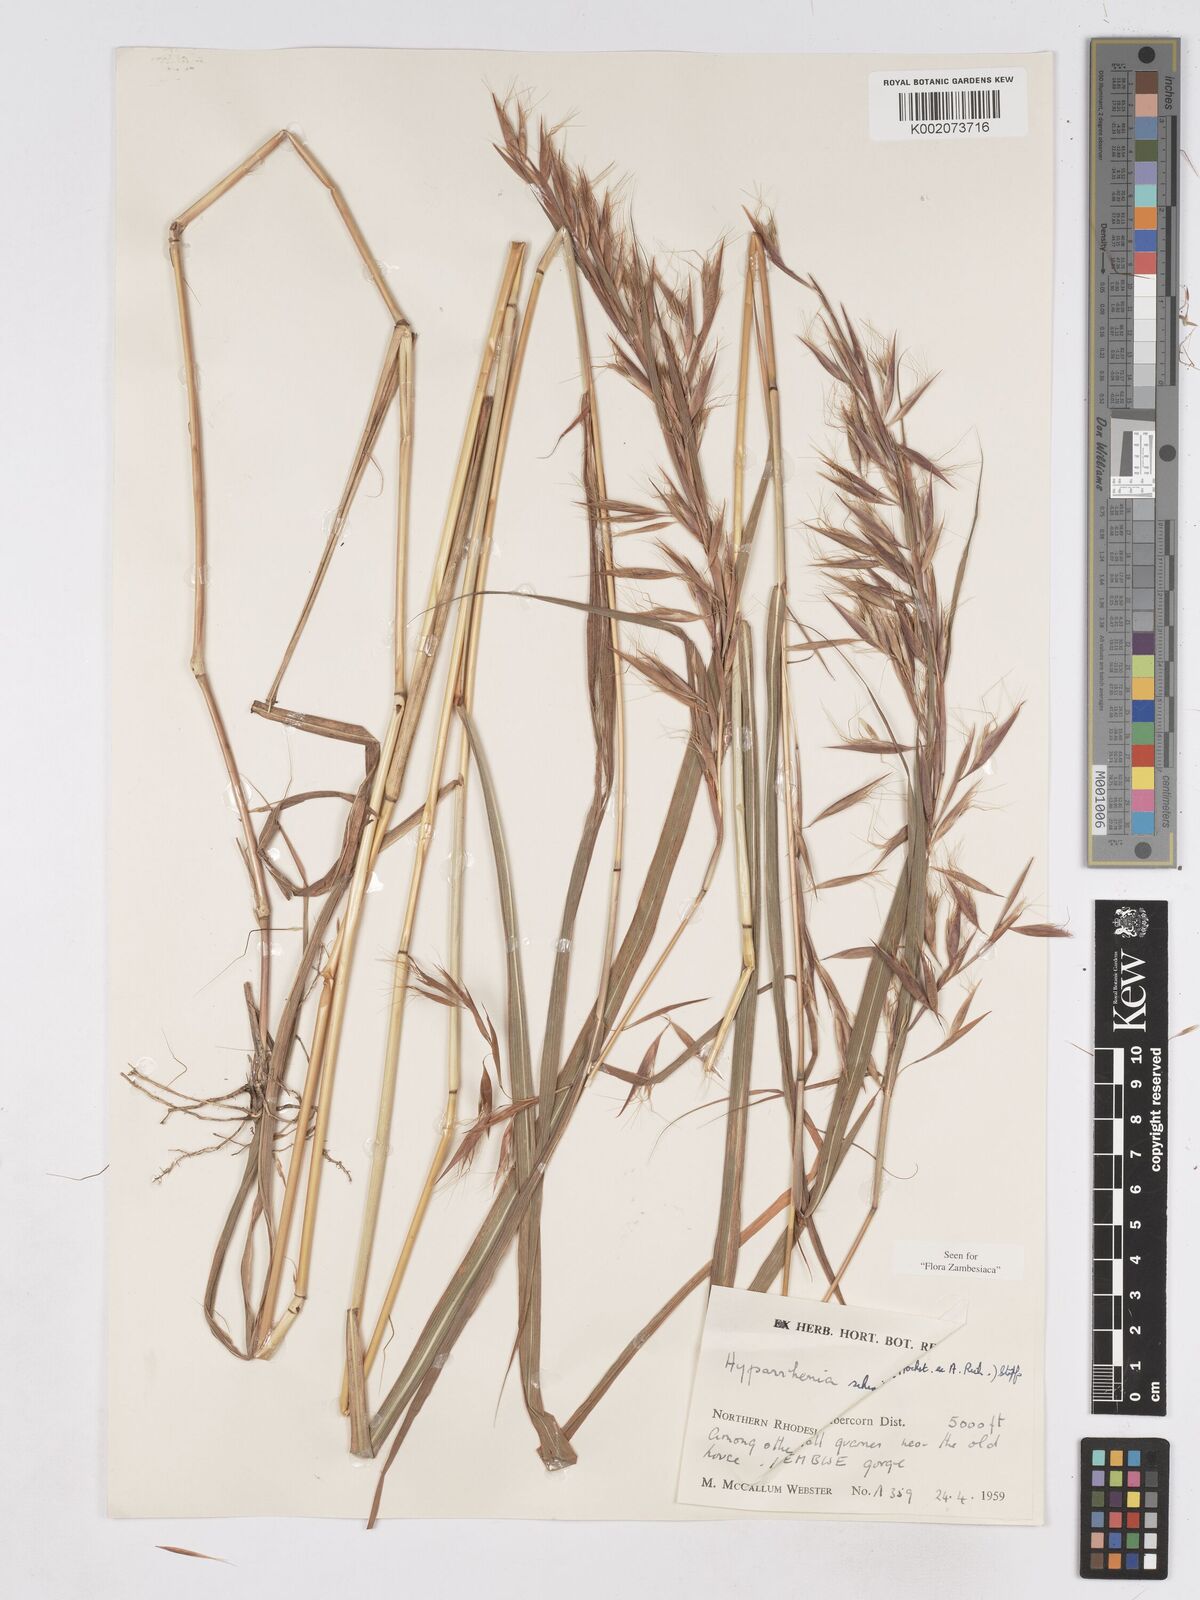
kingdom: Plantae
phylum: Tracheophyta
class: Liliopsida
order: Poales
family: Poaceae
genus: Hyparrhenia
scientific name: Hyparrhenia schimperi
